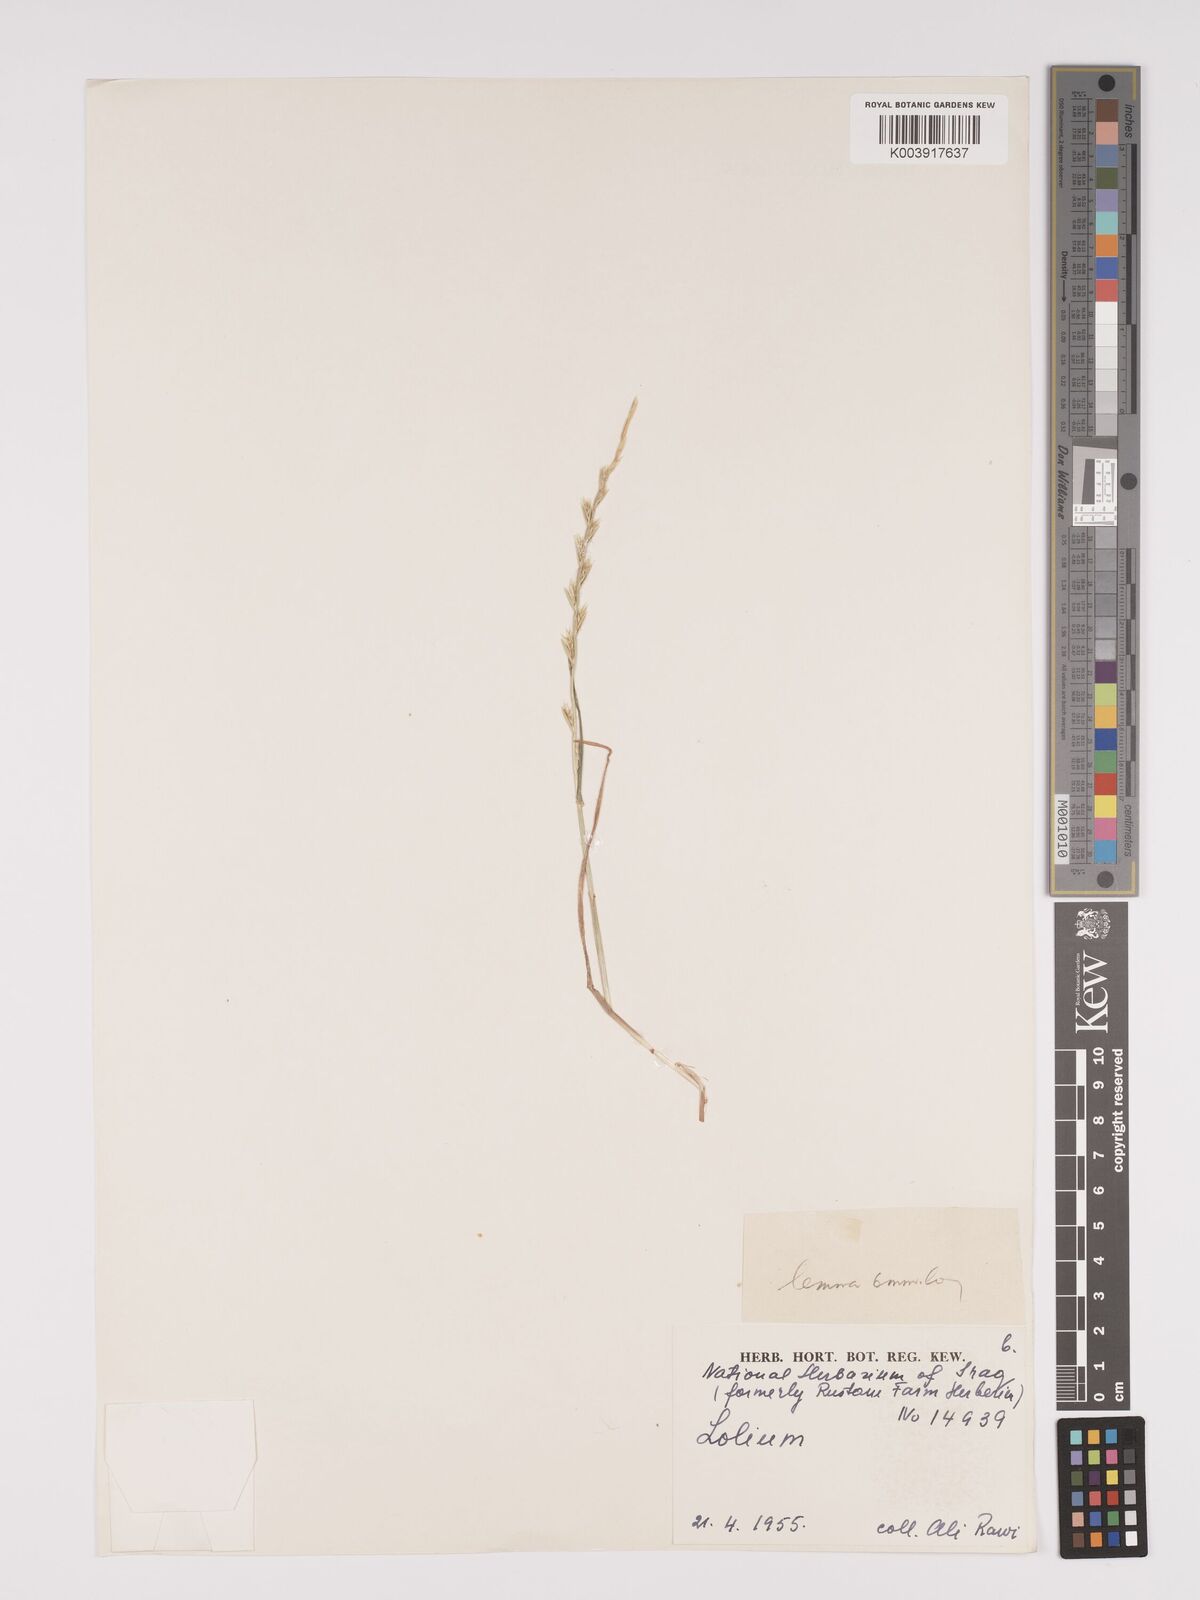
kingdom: Plantae
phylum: Tracheophyta
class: Liliopsida
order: Poales
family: Poaceae
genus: Lolium
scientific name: Lolium
